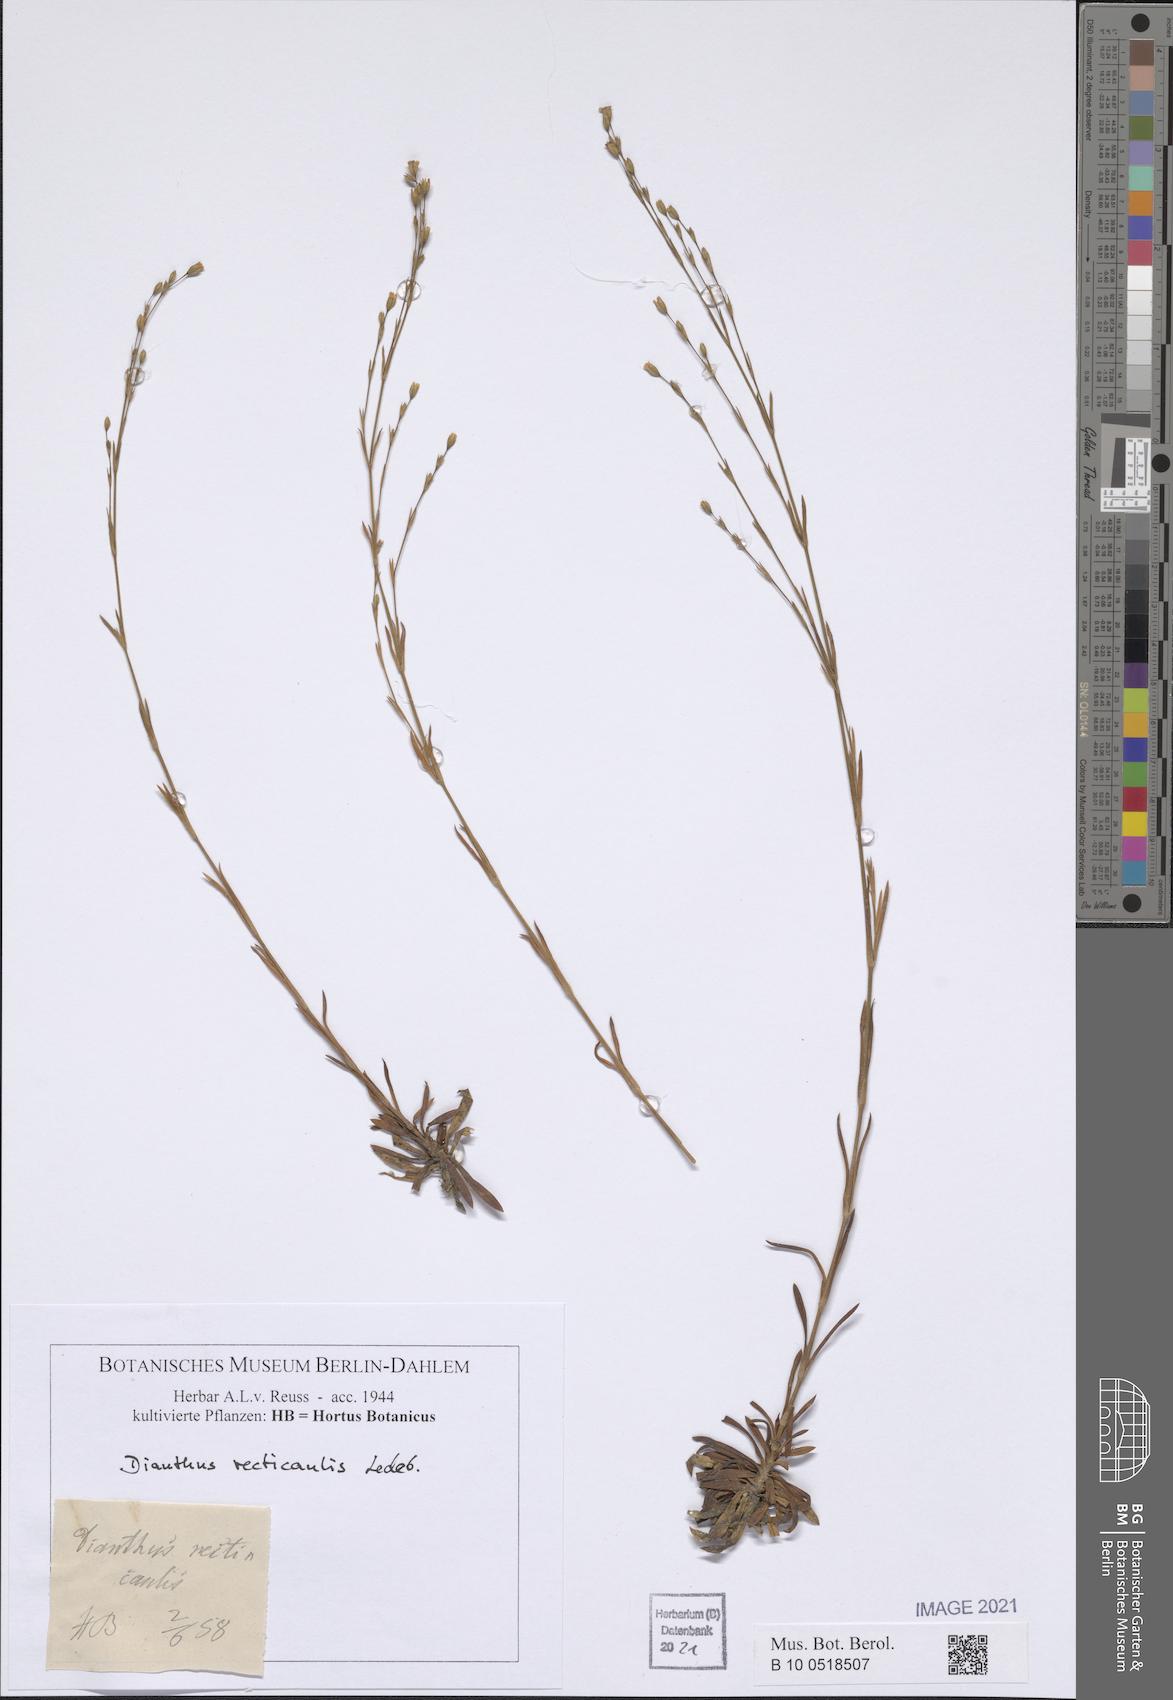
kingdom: Plantae
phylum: Tracheophyta
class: Magnoliopsida
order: Caryophyllales
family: Caryophyllaceae
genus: Petrorhagia
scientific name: Petrorhagia alpina
